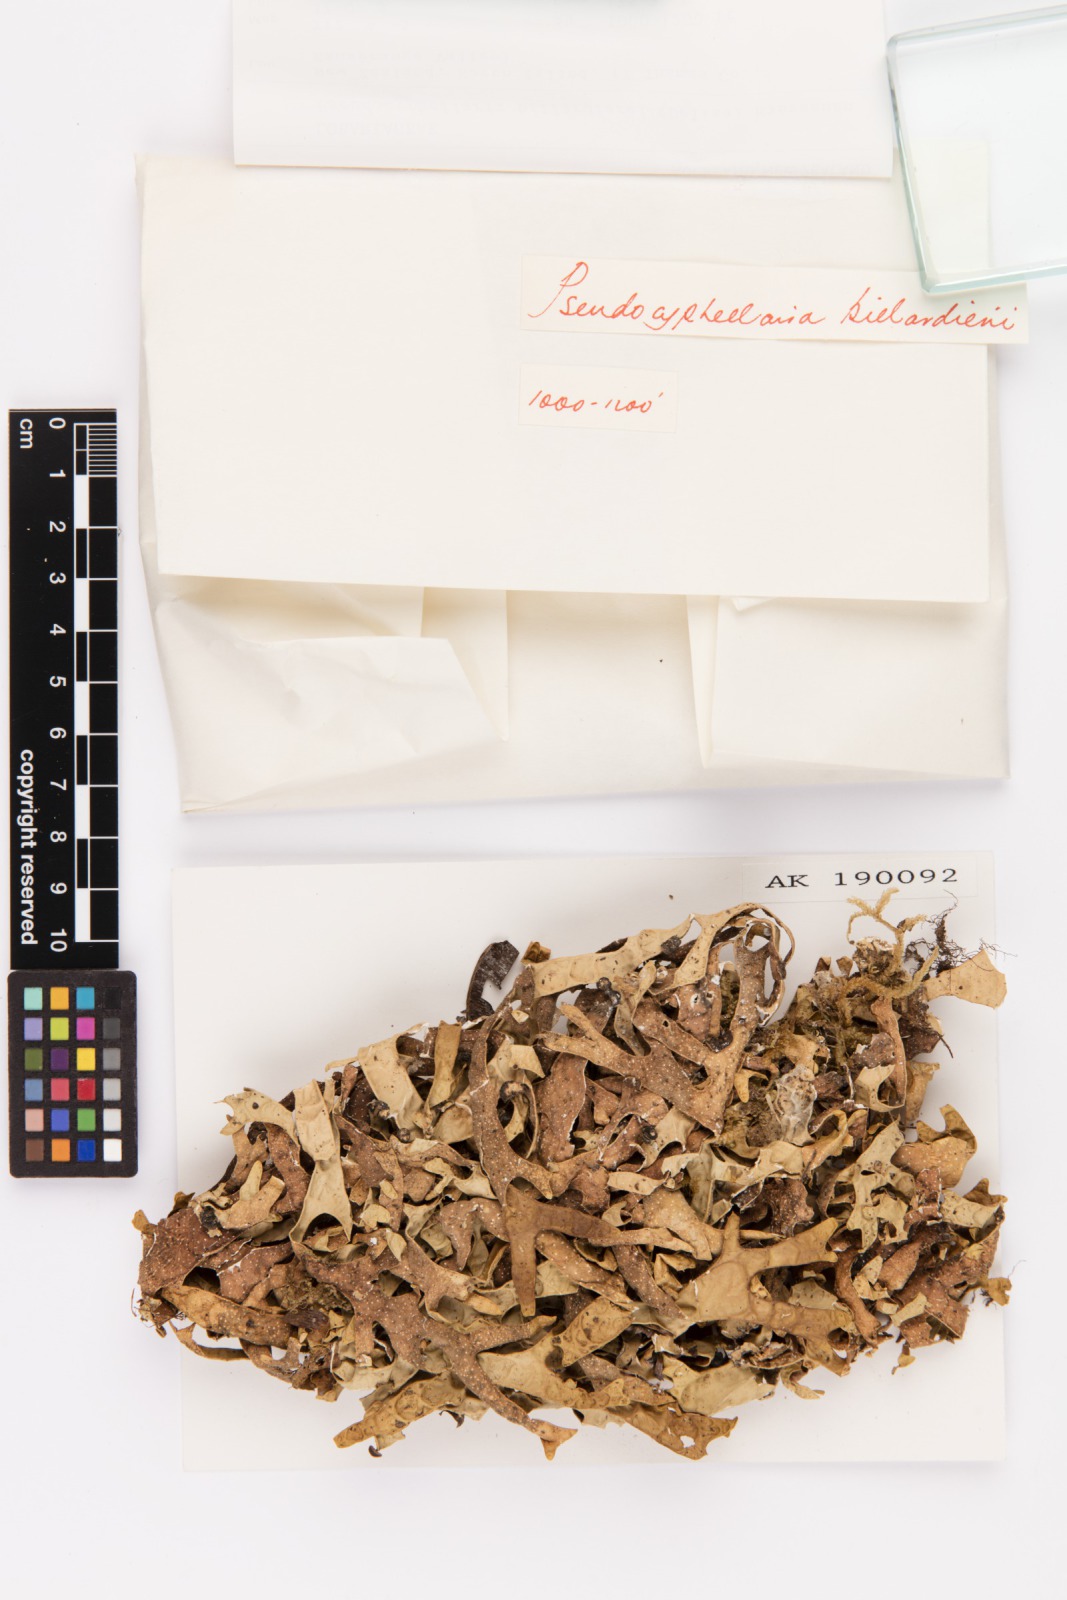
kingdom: Fungi
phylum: Ascomycota
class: Lecanoromycetes
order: Peltigerales
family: Lobariaceae
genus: Pseudocyphellaria
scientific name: Pseudocyphellaria billardierei
